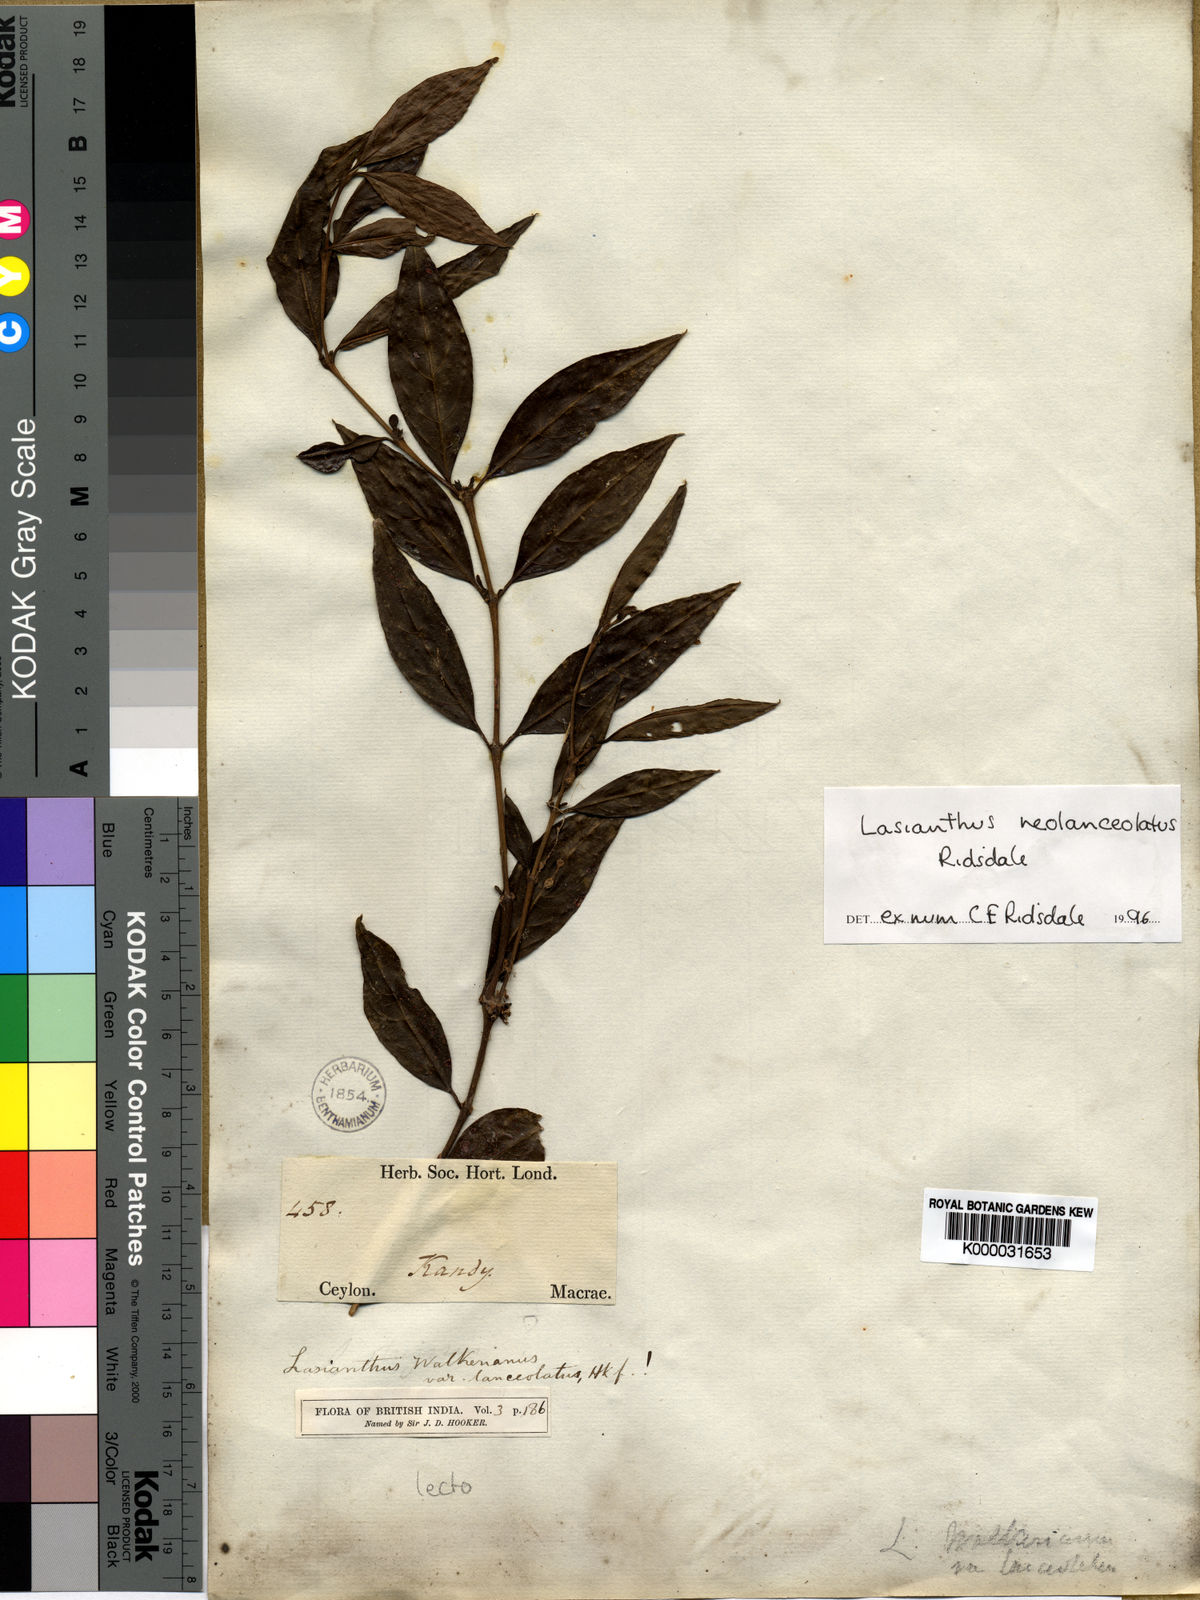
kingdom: Plantae
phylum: Tracheophyta
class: Magnoliopsida
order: Gentianales
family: Rubiaceae
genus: Lasianthus
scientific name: Lasianthus neolanceolatus
